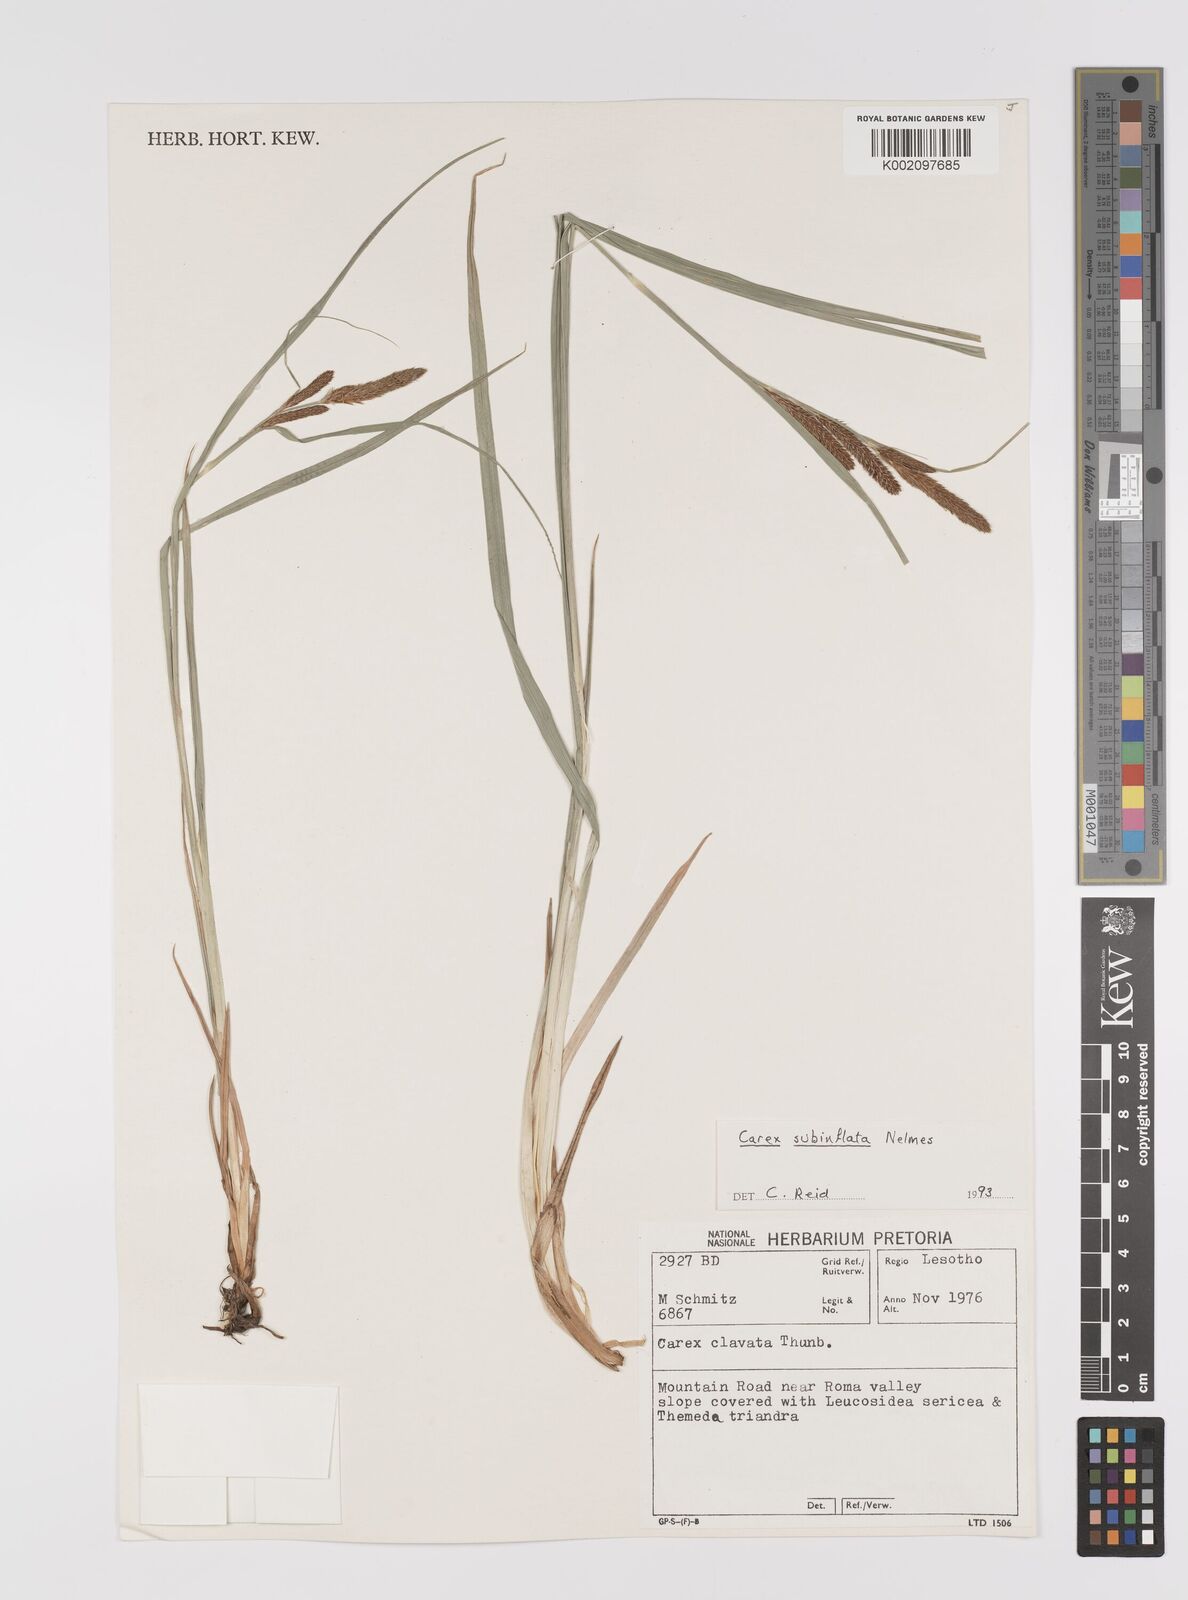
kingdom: Plantae
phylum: Tracheophyta
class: Liliopsida
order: Poales
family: Cyperaceae
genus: Carex
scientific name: Carex subinflata
